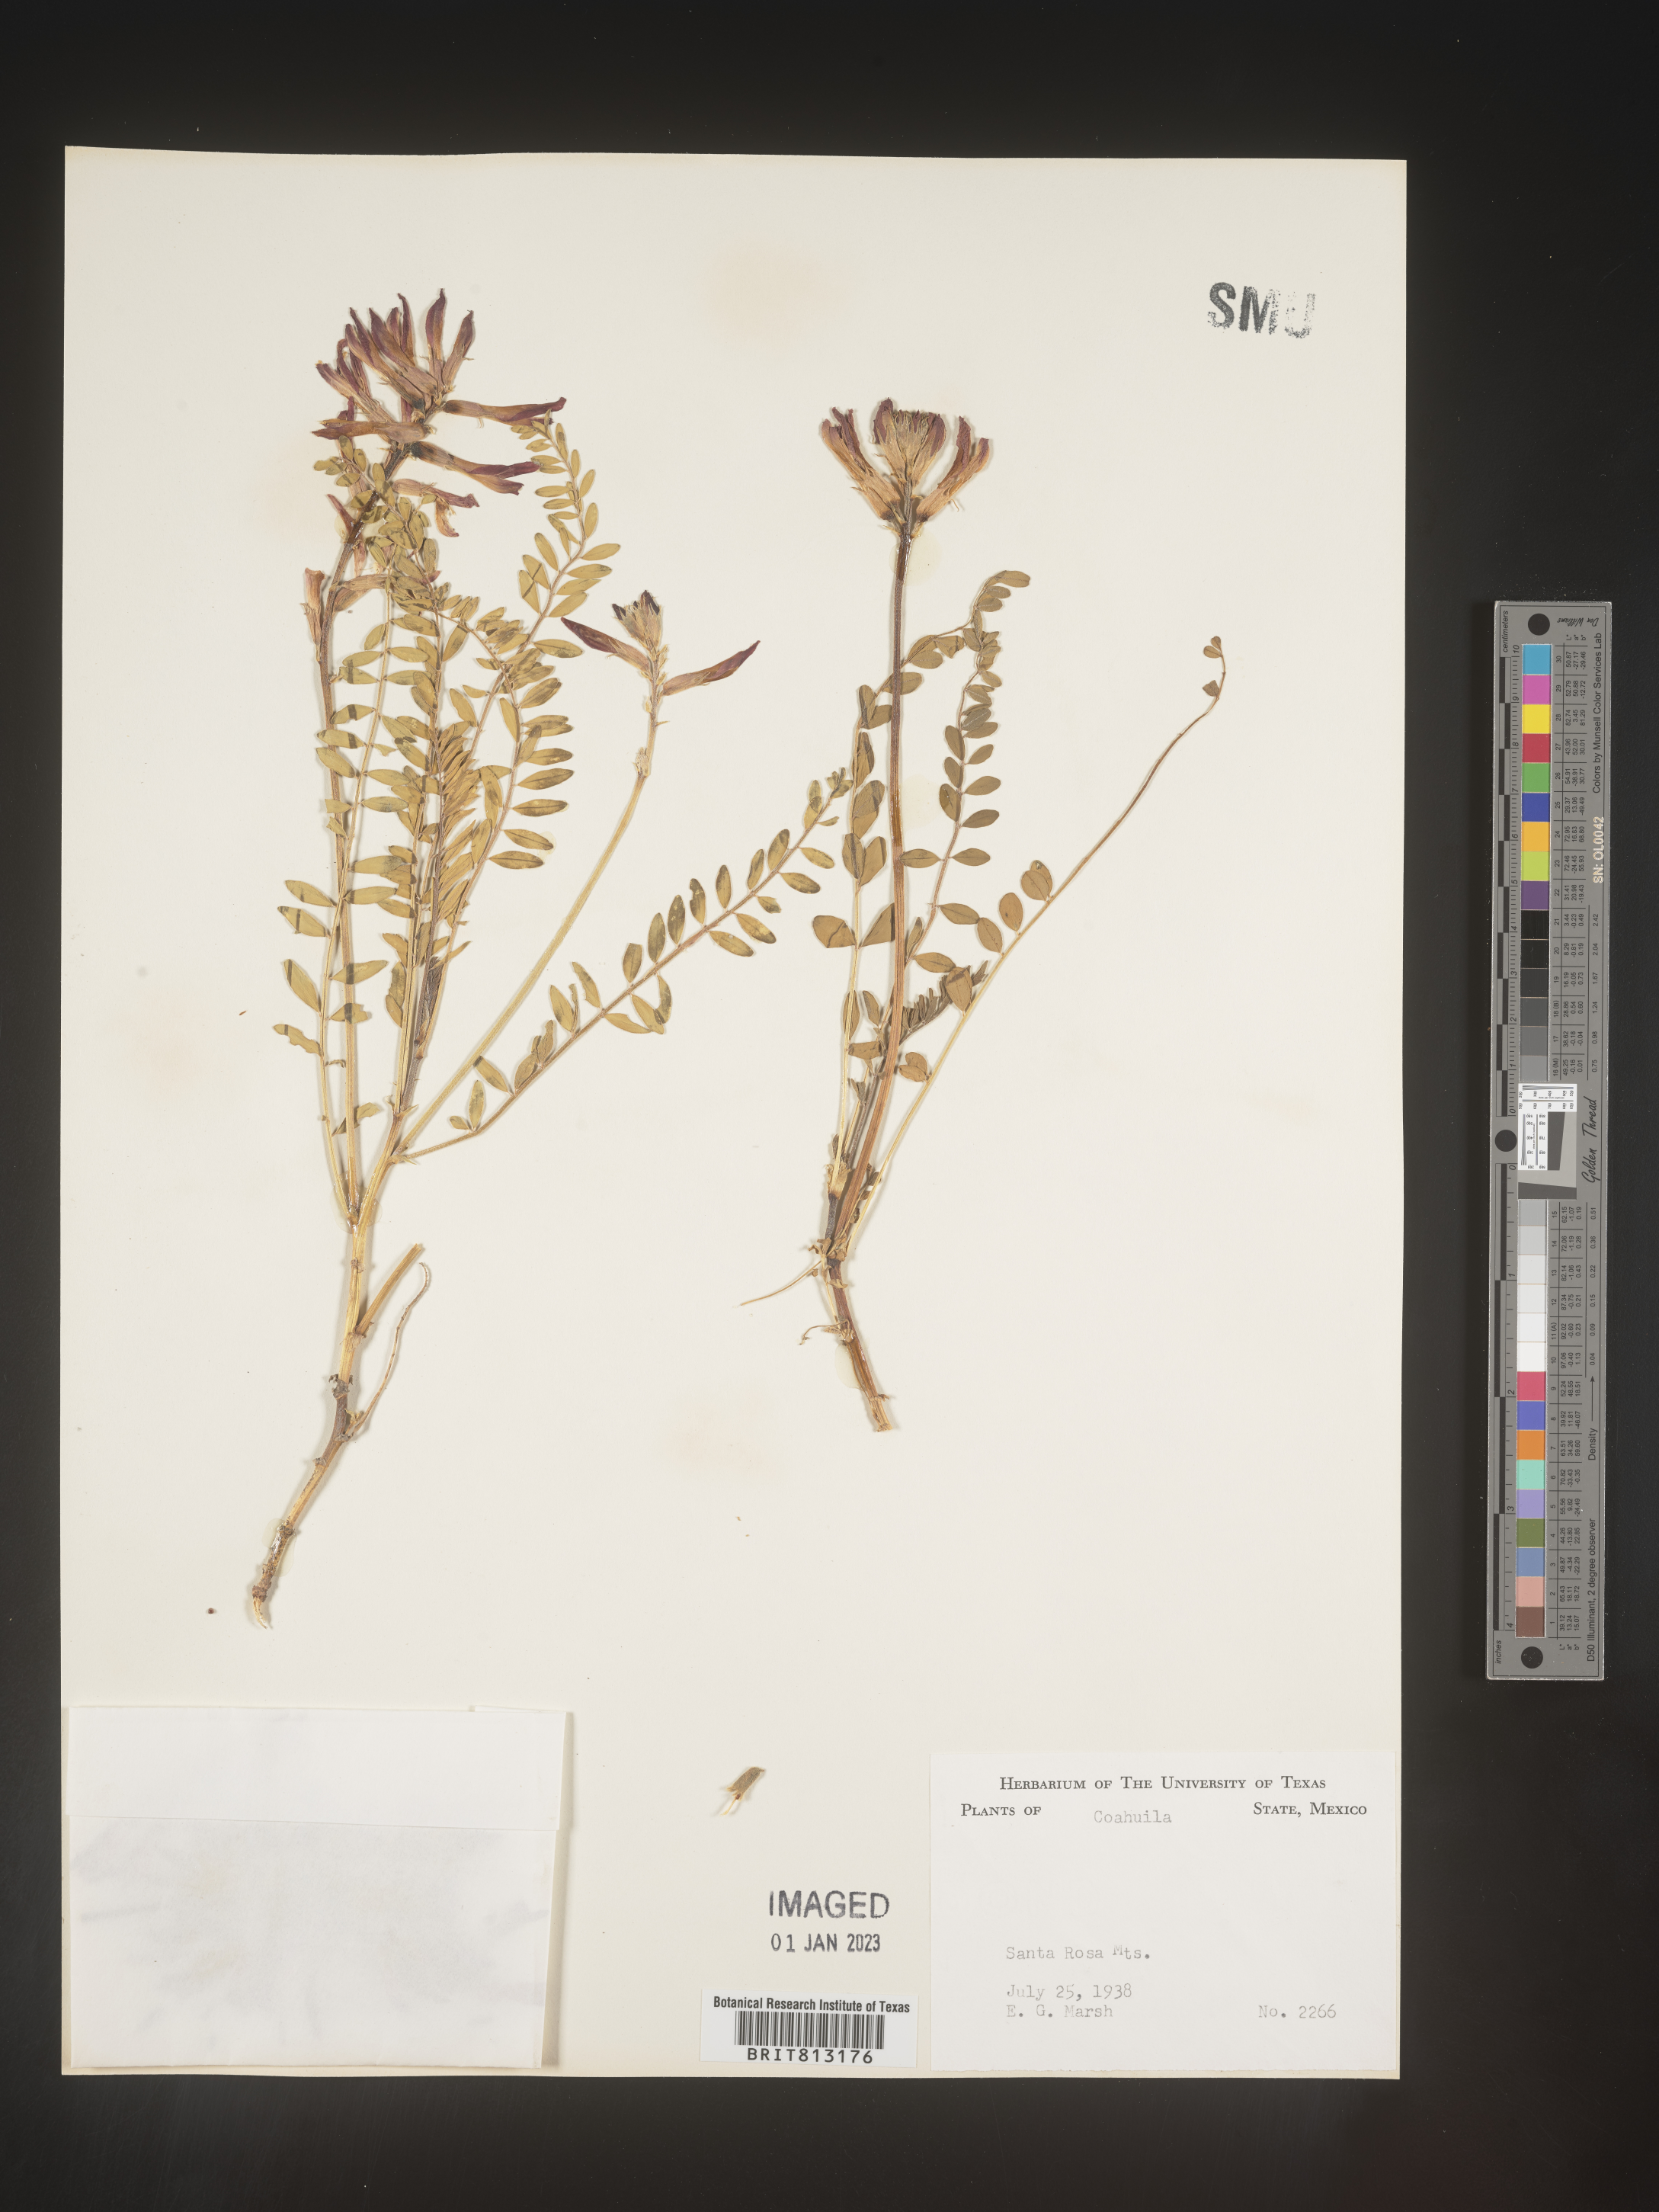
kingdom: Plantae
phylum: Tracheophyta
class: Magnoliopsida
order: Fabales
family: Fabaceae
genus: Astragalus
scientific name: Astragalus
